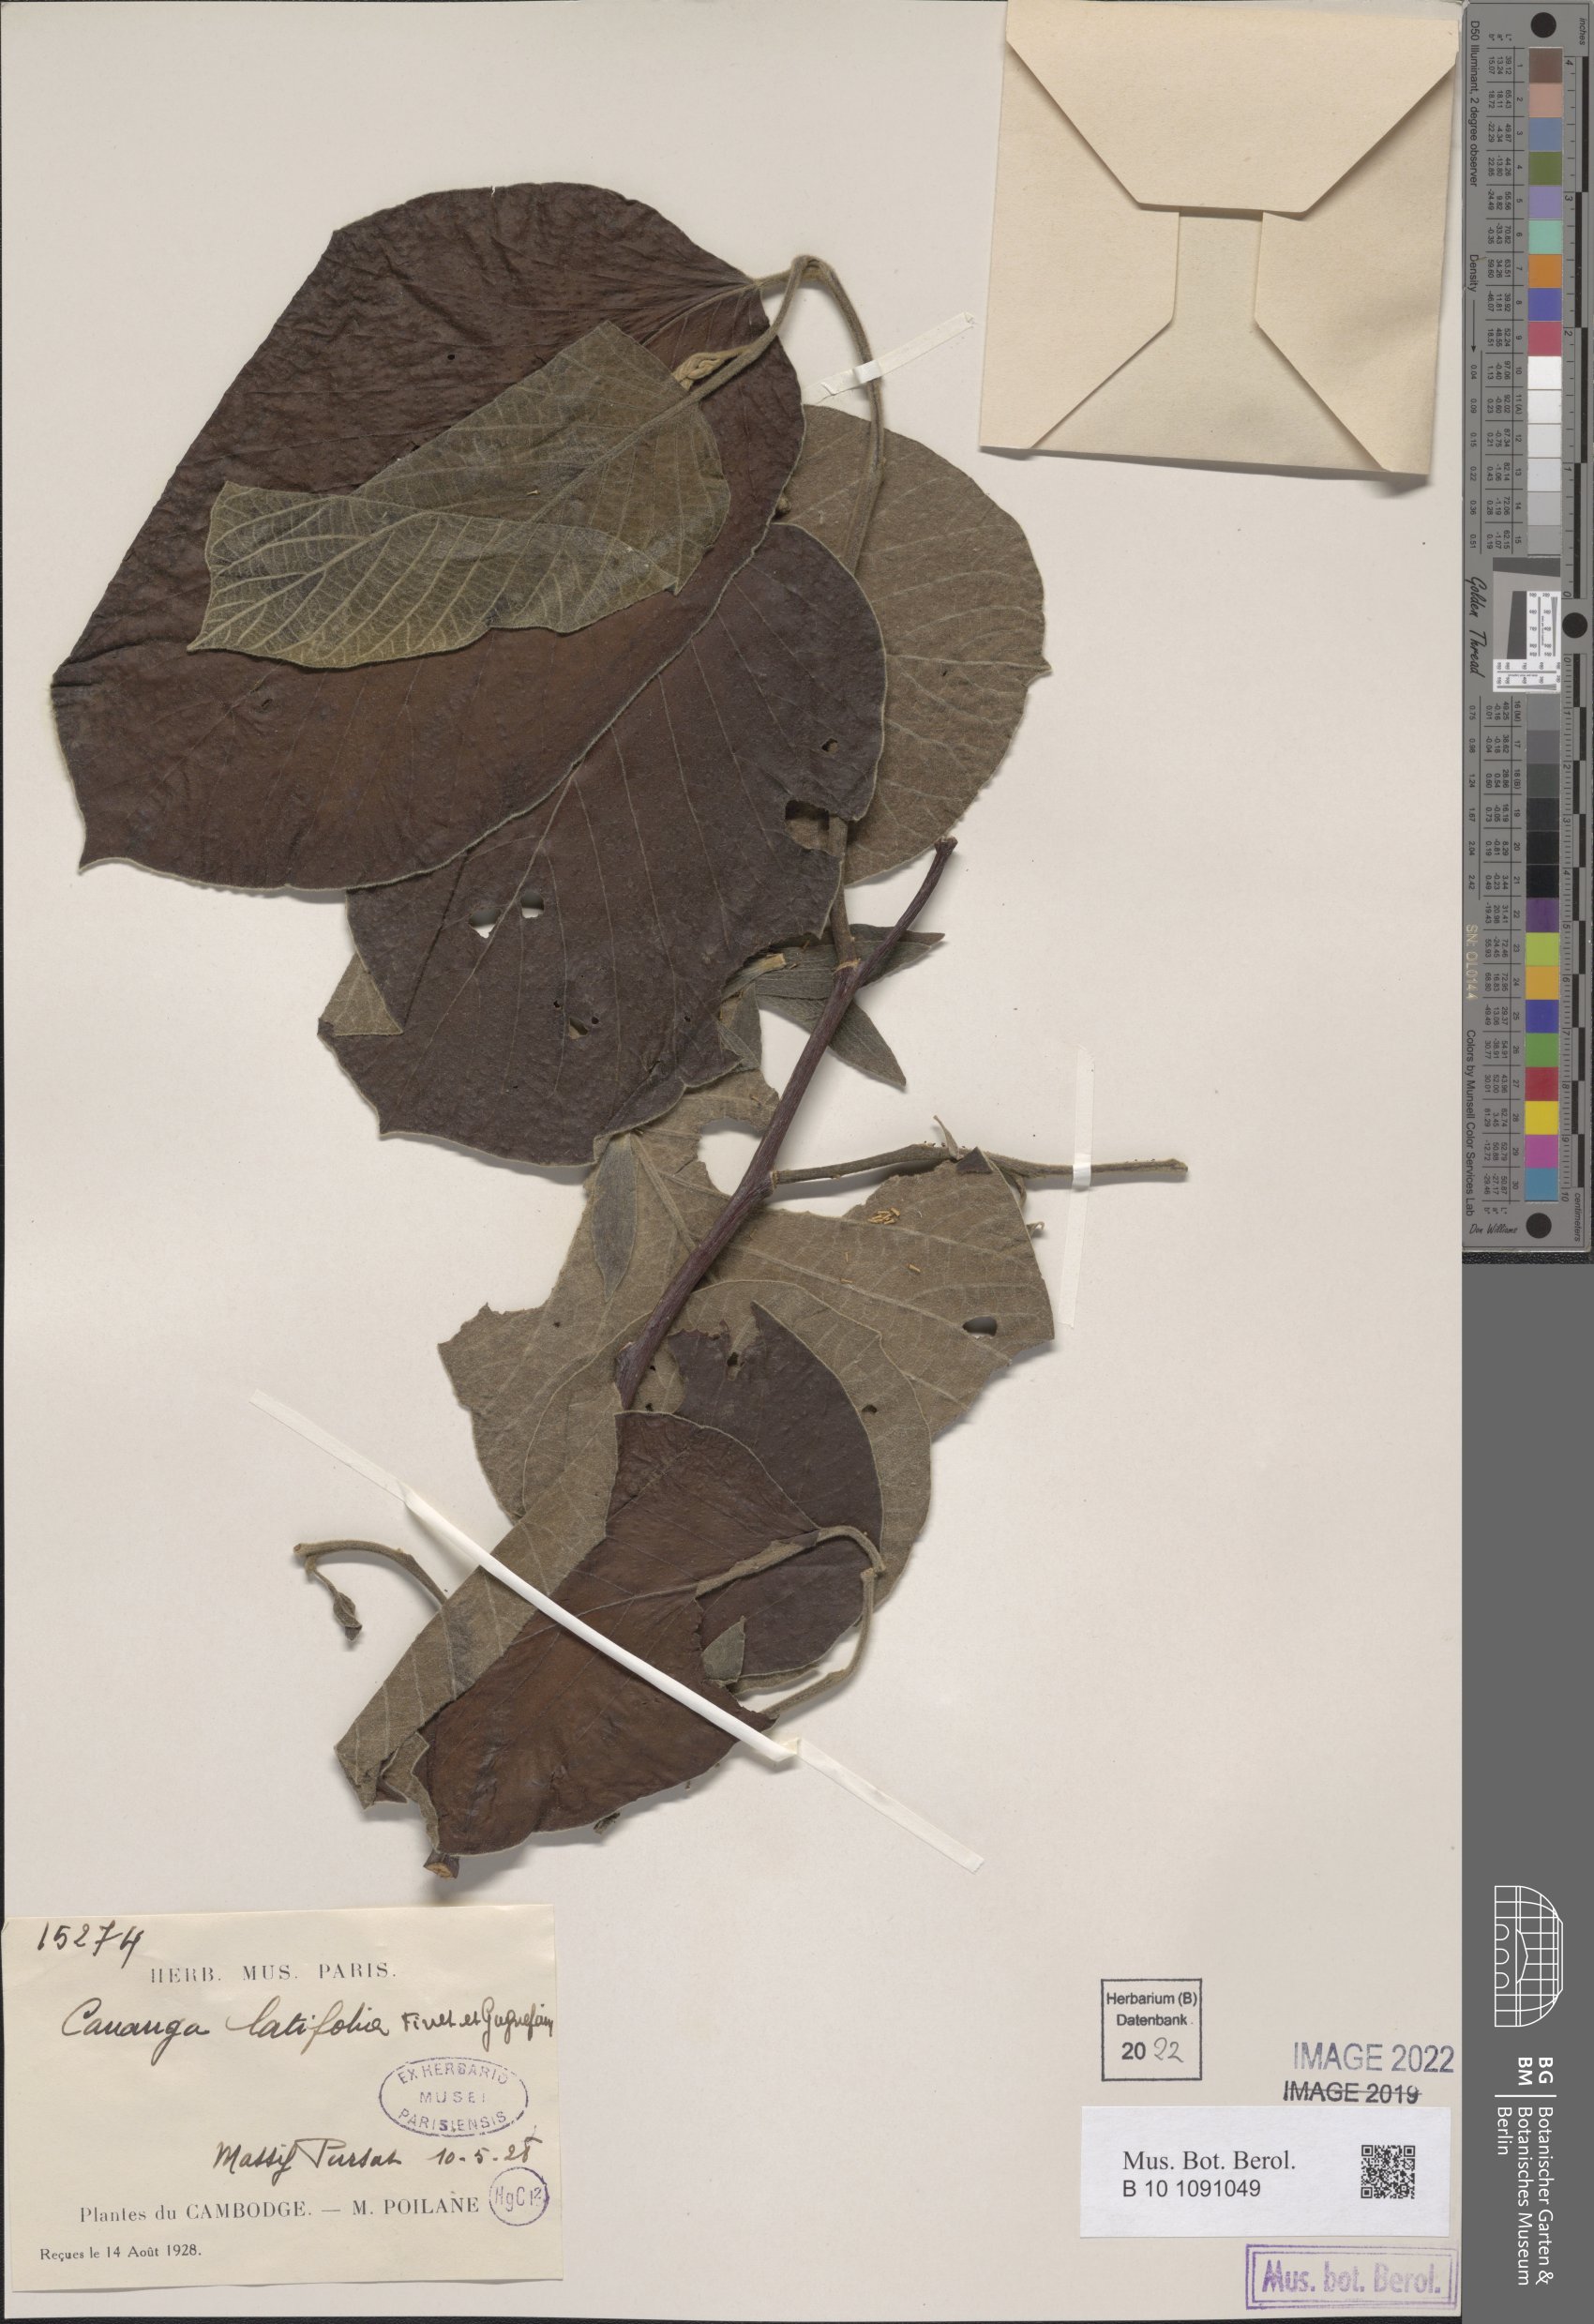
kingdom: Plantae
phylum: Tracheophyta
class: Magnoliopsida
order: Magnoliales
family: Annonaceae
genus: Cananga
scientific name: Cananga brandisiana
